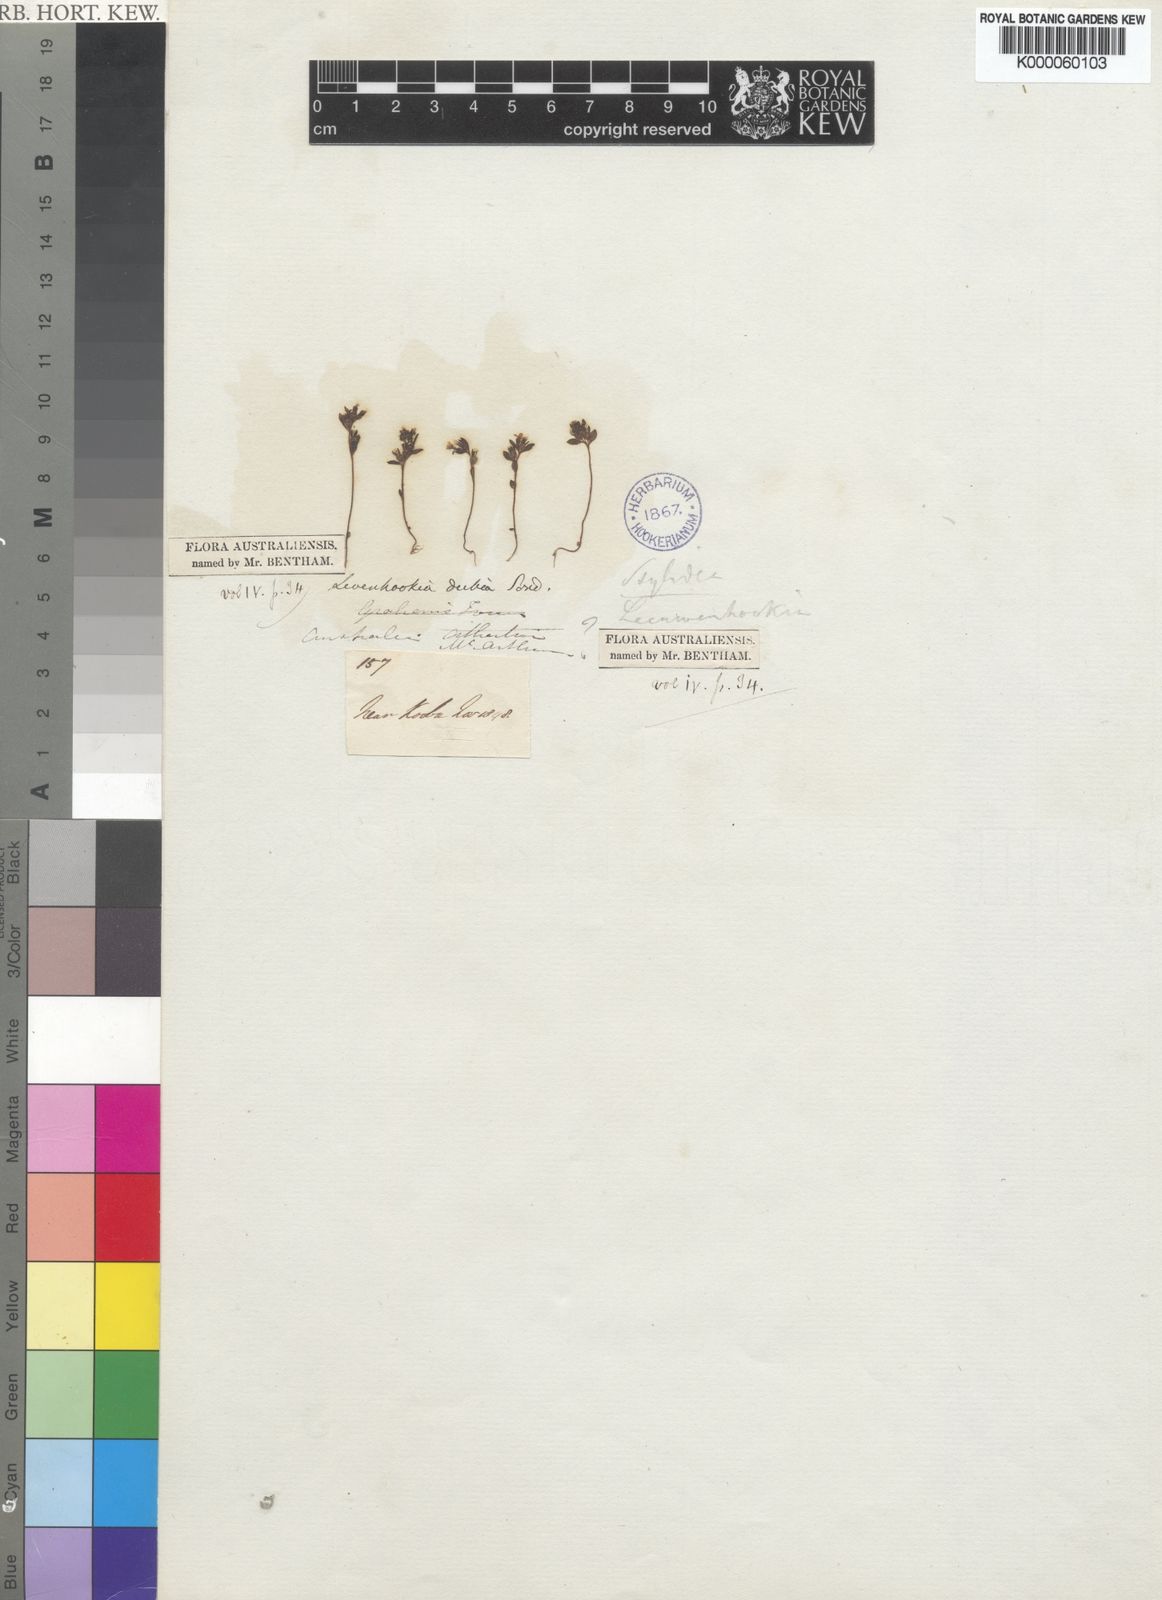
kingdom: Plantae
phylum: Tracheophyta
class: Magnoliopsida
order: Asterales
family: Stylidiaceae
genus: Levenhookia
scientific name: Levenhookia dubia
